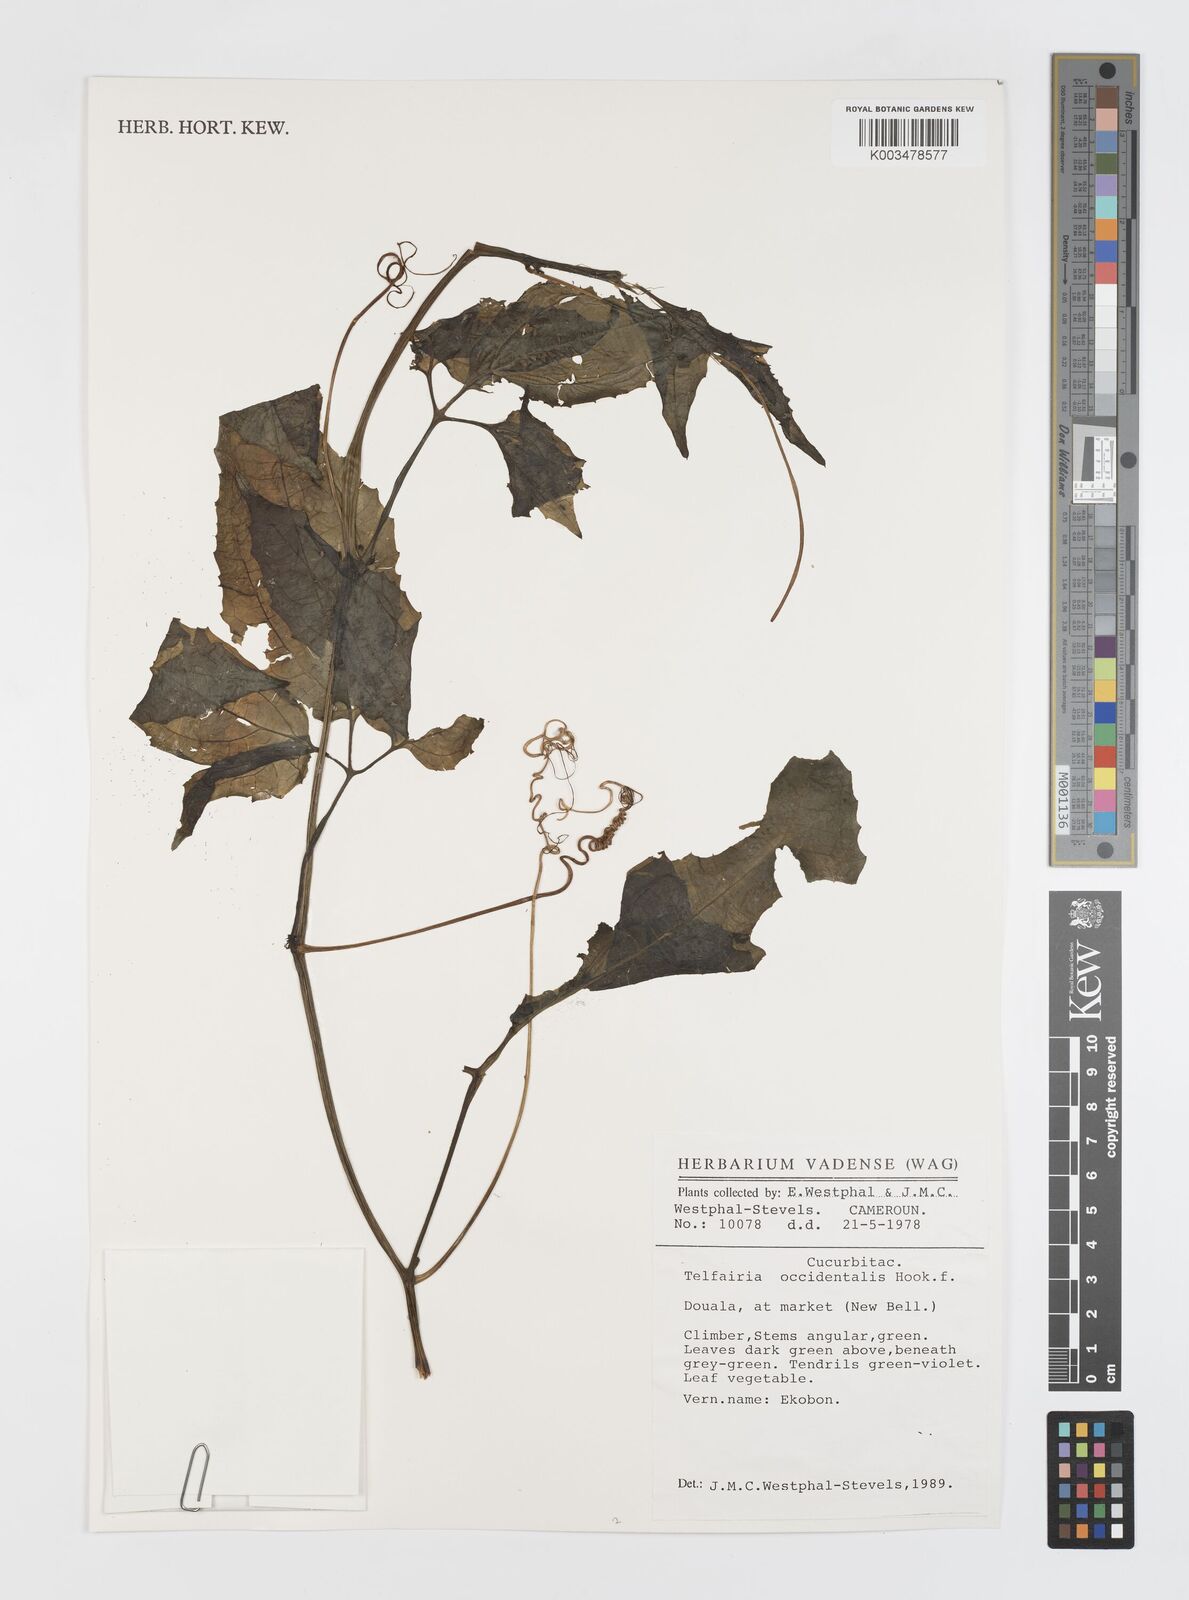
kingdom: Plantae
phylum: Tracheophyta
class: Magnoliopsida
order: Cucurbitales
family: Cucurbitaceae
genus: Telfairia
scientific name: Telfairia occidentalis
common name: Oysternut
